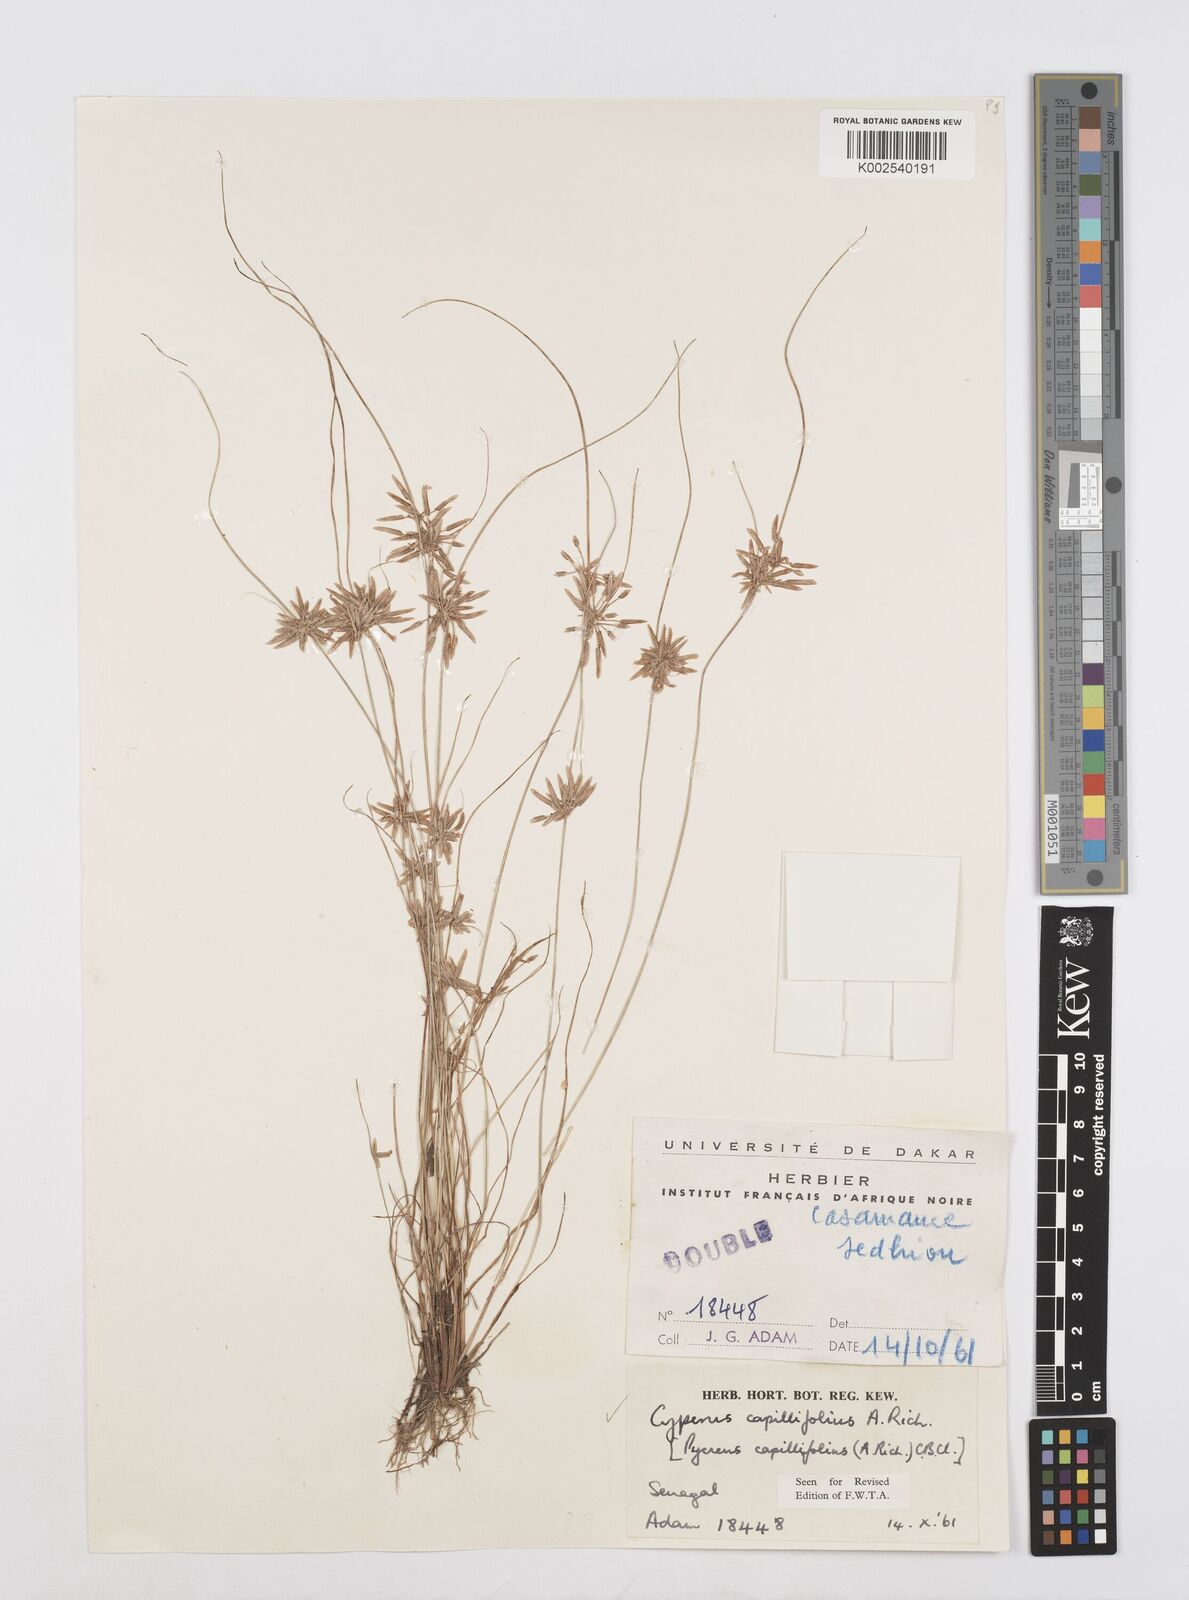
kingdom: Plantae
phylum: Tracheophyta
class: Liliopsida
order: Poales
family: Cyperaceae
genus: Cyperus
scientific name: Cyperus capillifolius
